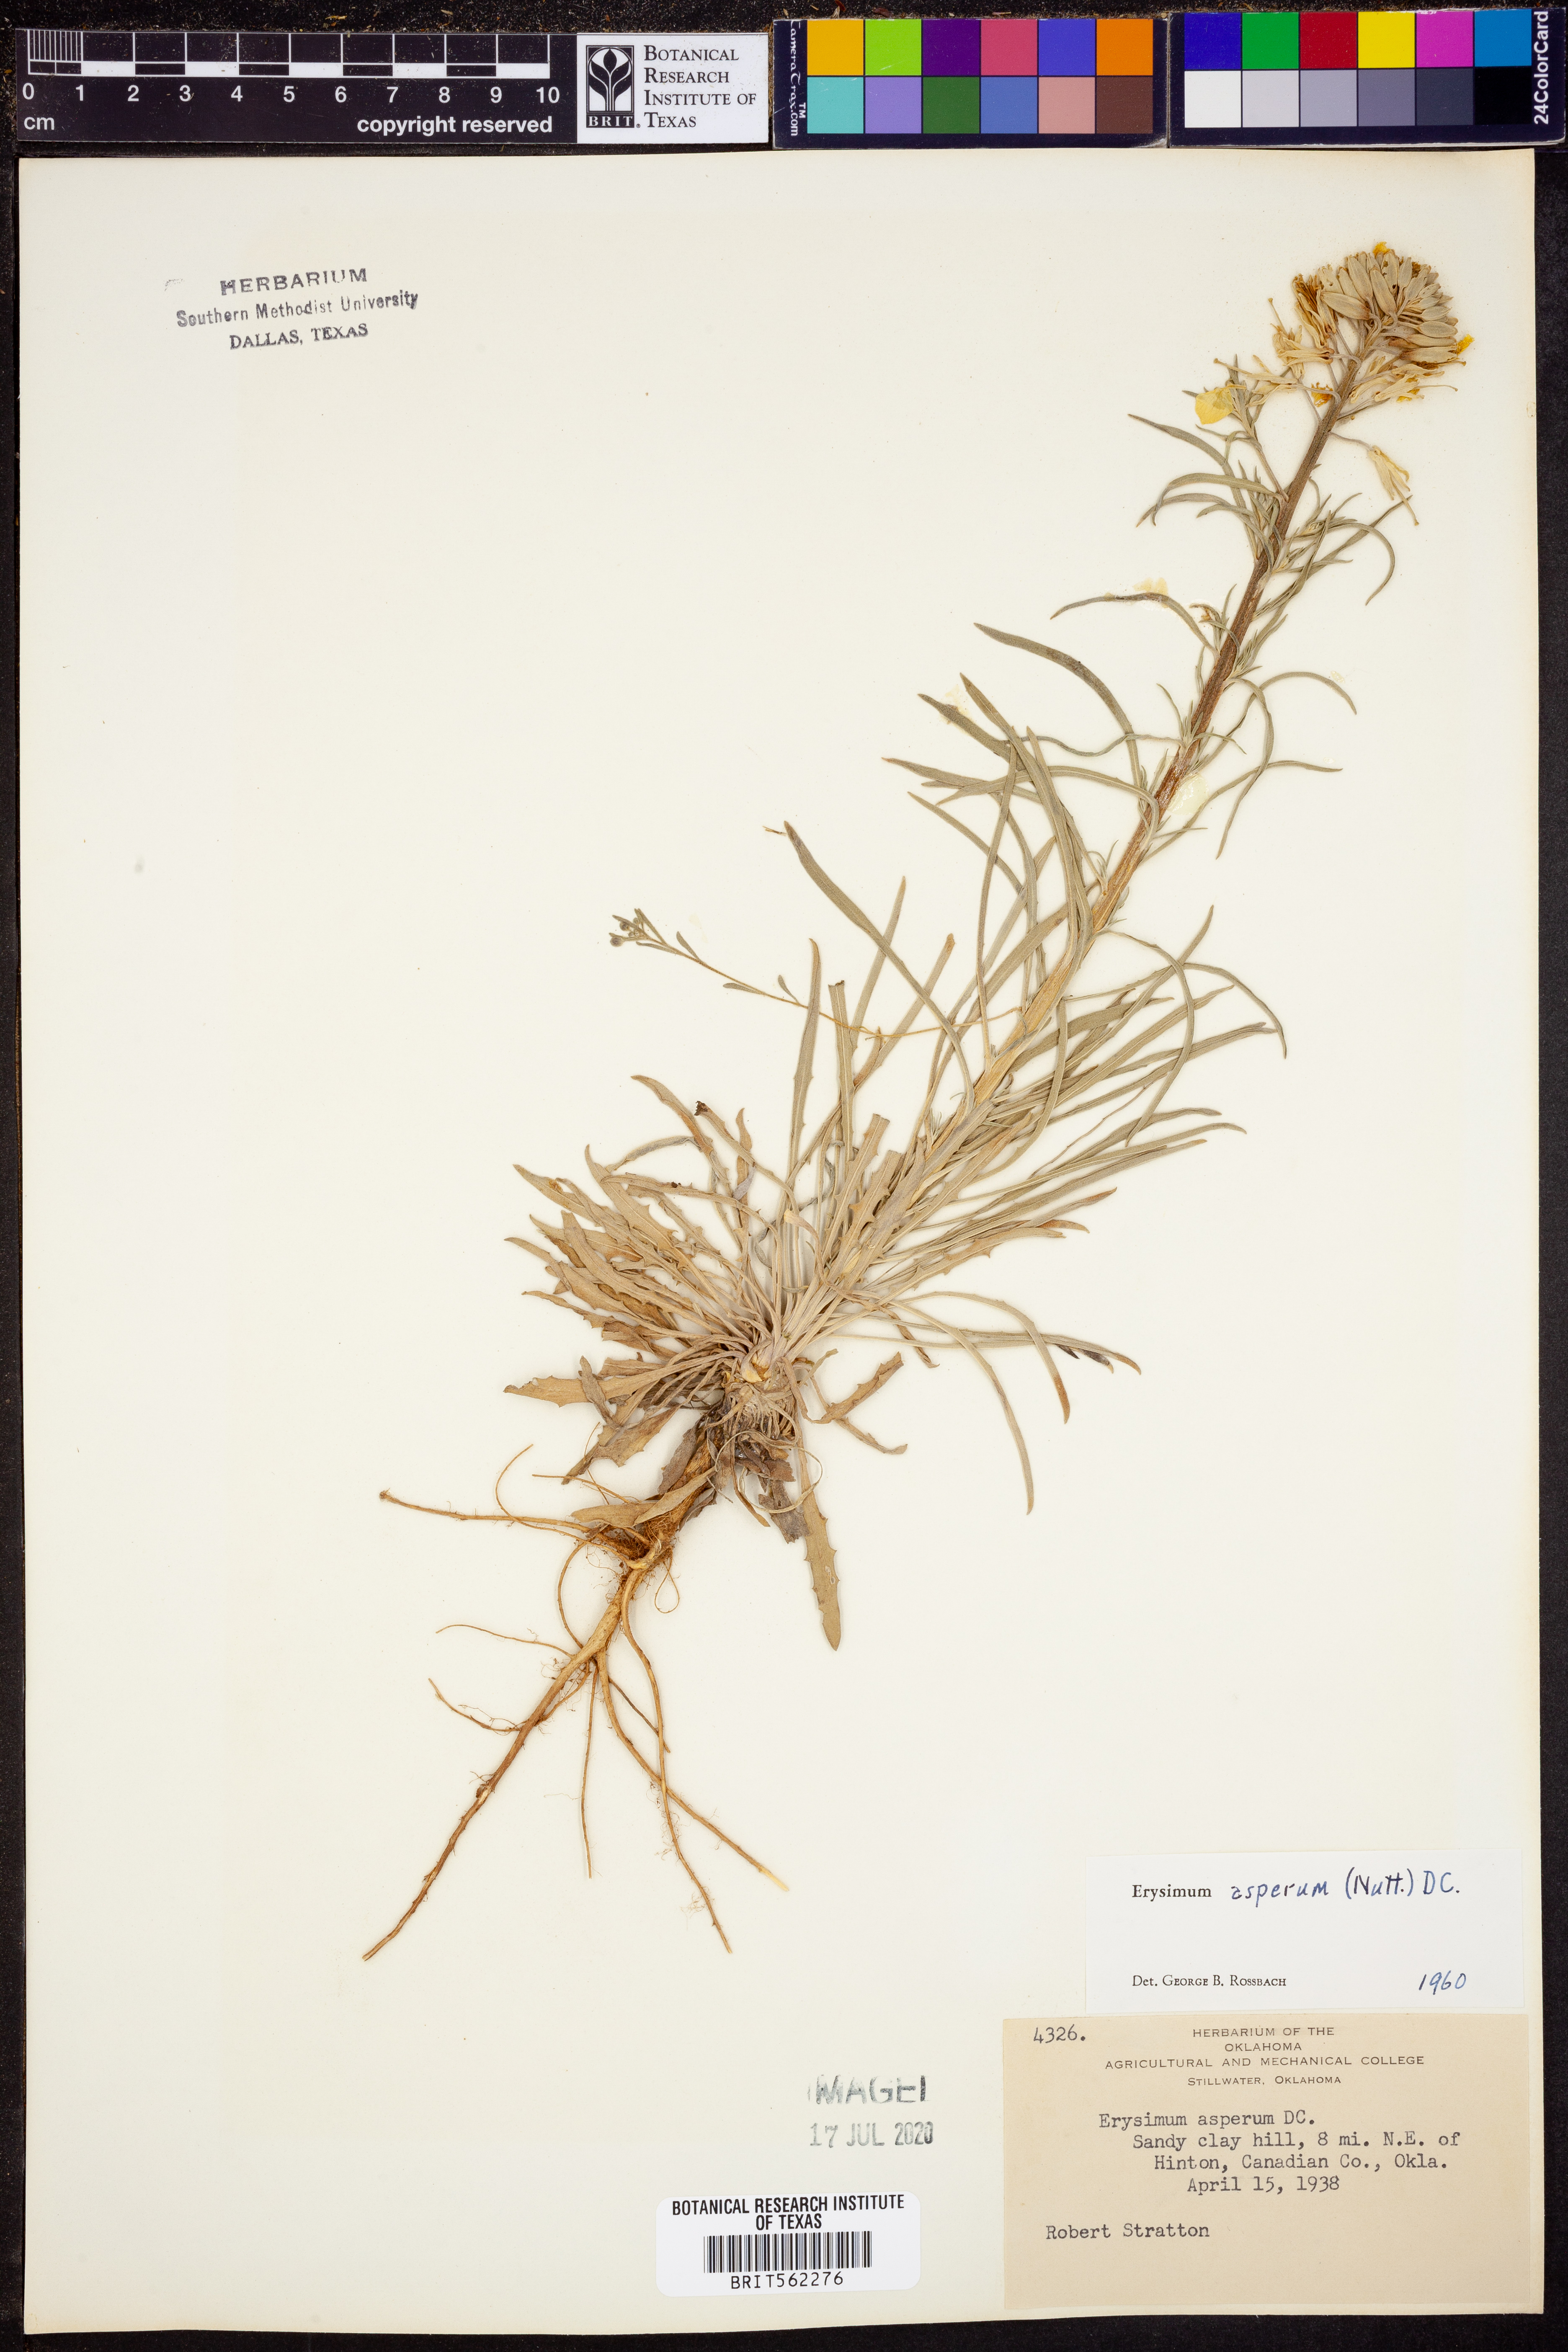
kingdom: Plantae
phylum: Tracheophyta
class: Magnoliopsida
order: Brassicales
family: Brassicaceae
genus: Erysimum
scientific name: Erysimum asperum
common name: Western wallflower
